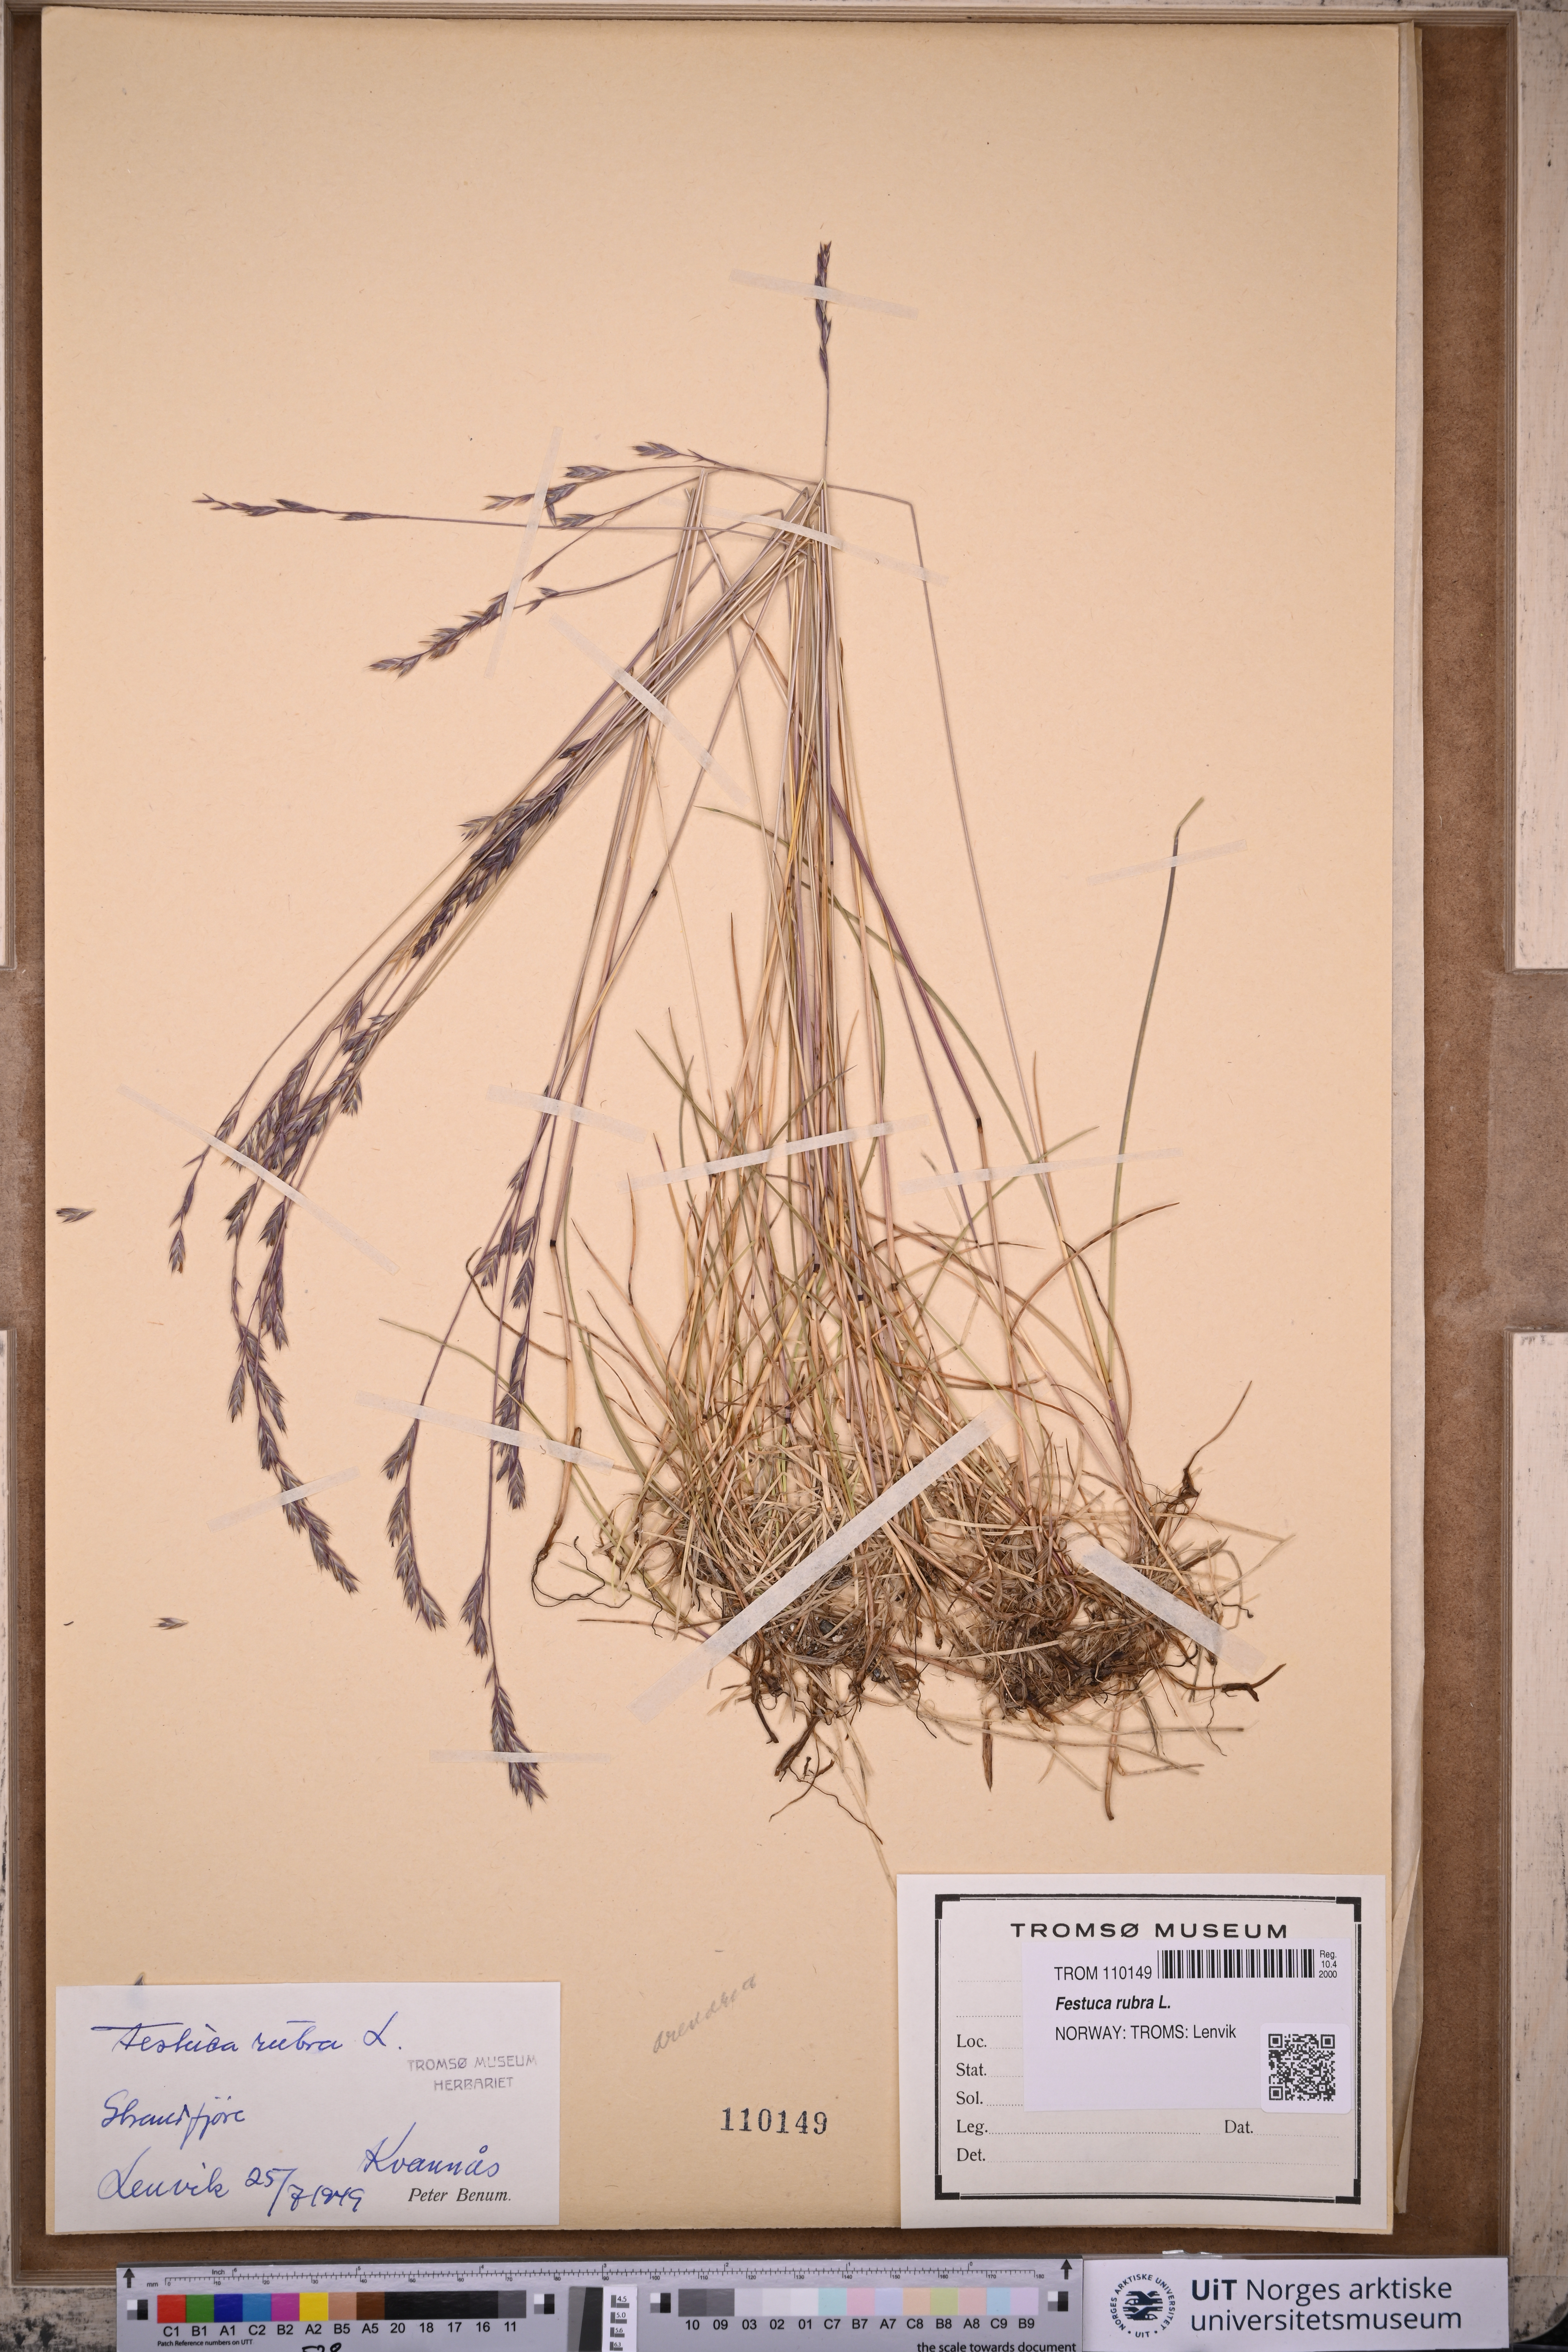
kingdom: Plantae
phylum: Tracheophyta
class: Liliopsida
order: Poales
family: Poaceae
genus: Festuca
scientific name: Festuca rubra
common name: Red fescue
